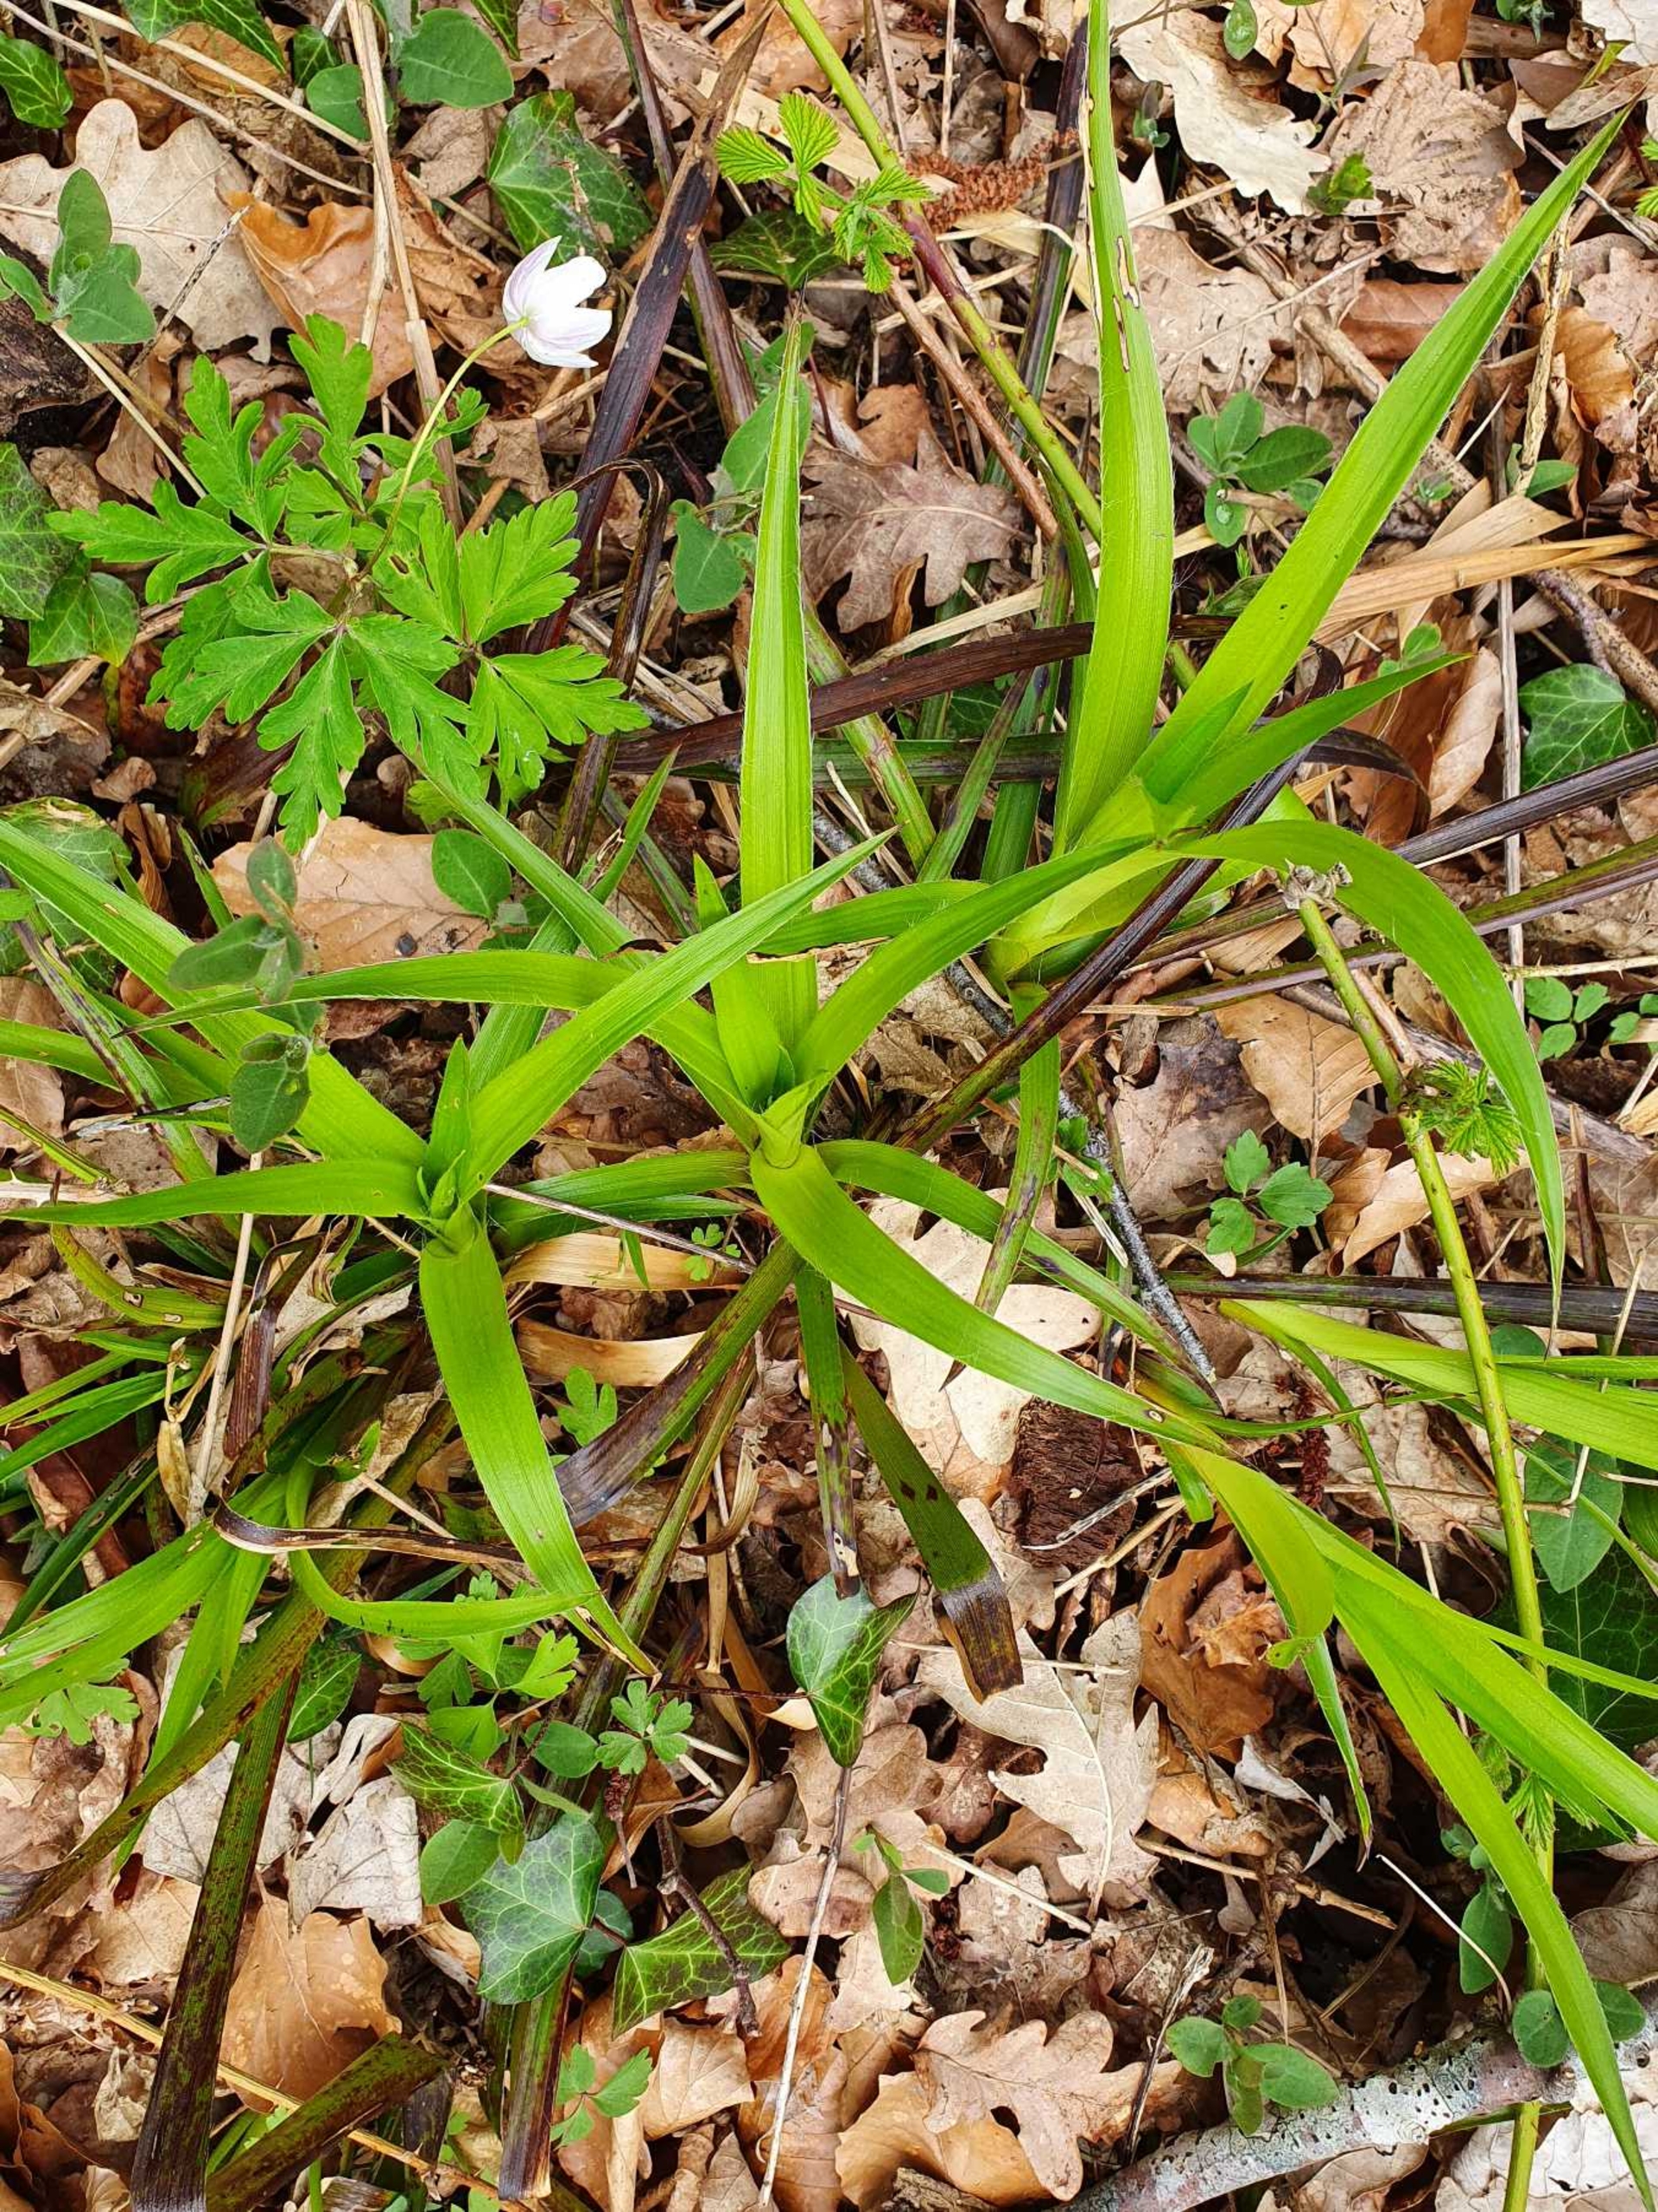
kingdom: Plantae
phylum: Tracheophyta
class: Liliopsida
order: Poales
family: Juncaceae
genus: Luzula
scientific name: Luzula sylvatica
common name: Stor frytle
